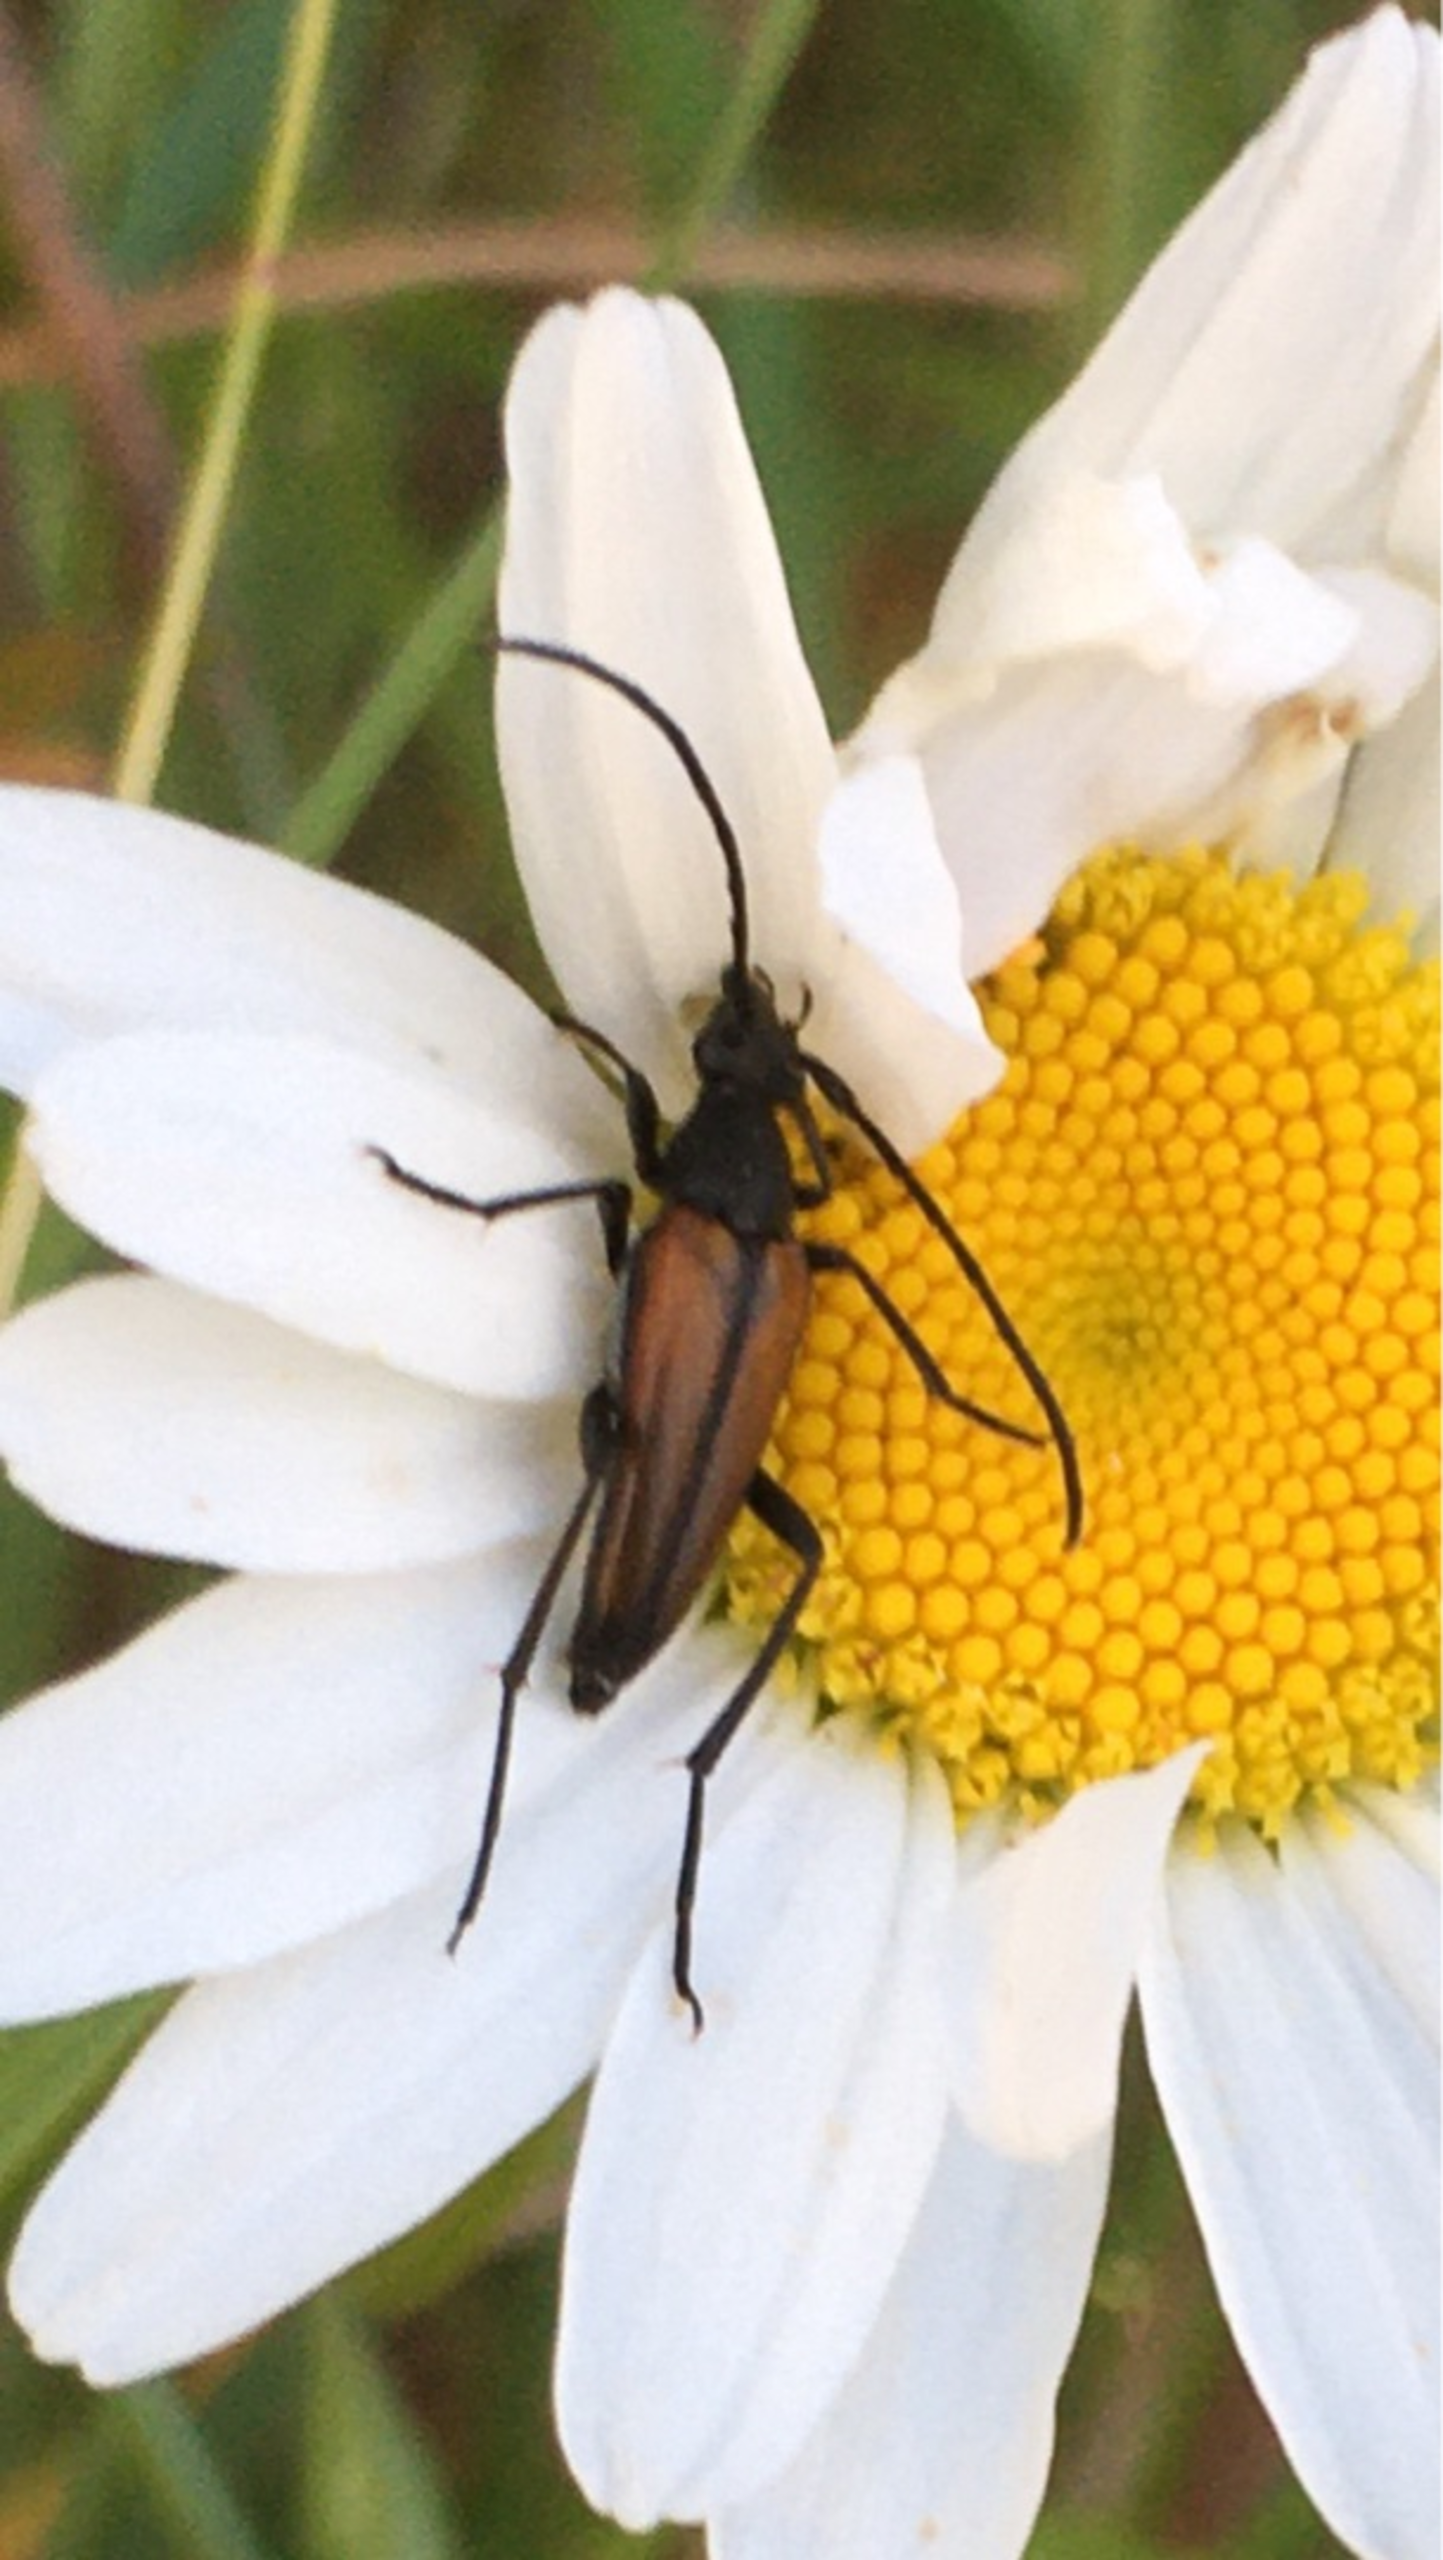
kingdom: Animalia
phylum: Arthropoda
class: Insecta
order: Coleoptera
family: Cerambycidae
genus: Stenurella
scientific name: Stenurella melanura
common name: Sortsømmet blomsterbuk
